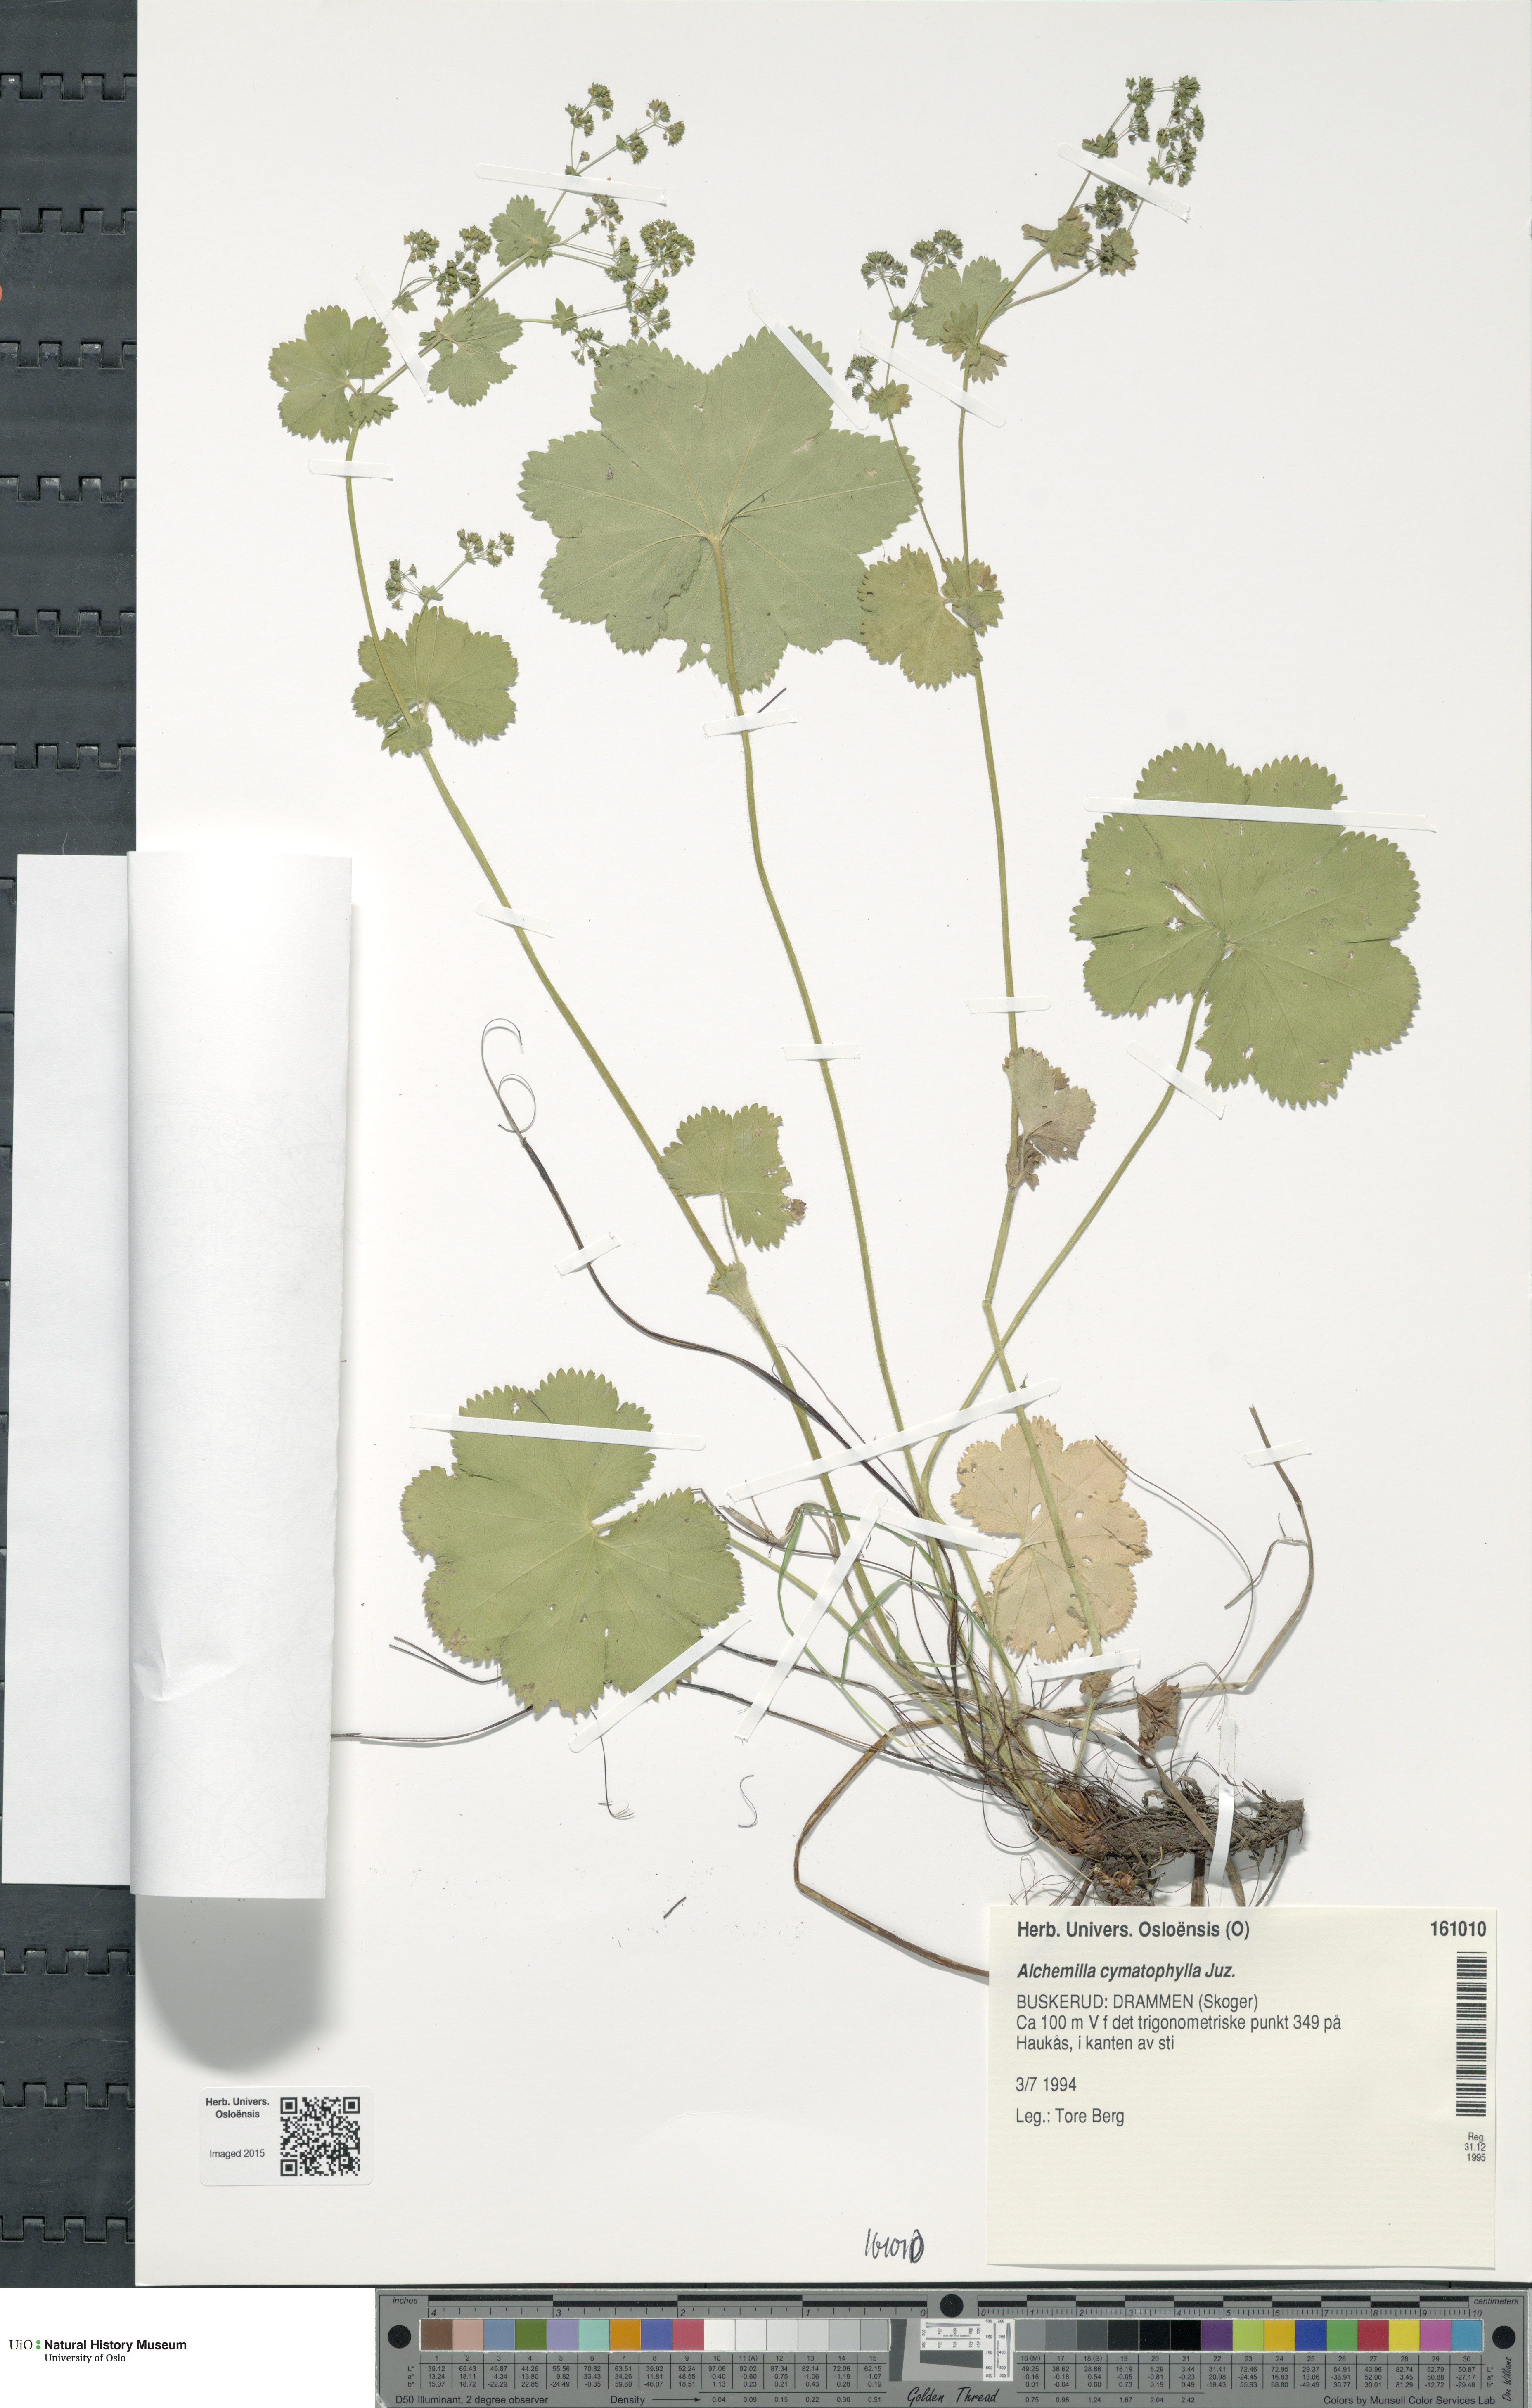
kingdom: Plantae
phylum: Tracheophyta
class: Magnoliopsida
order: Rosales
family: Rosaceae
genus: Alchemilla
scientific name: Alchemilla cymatophylla
